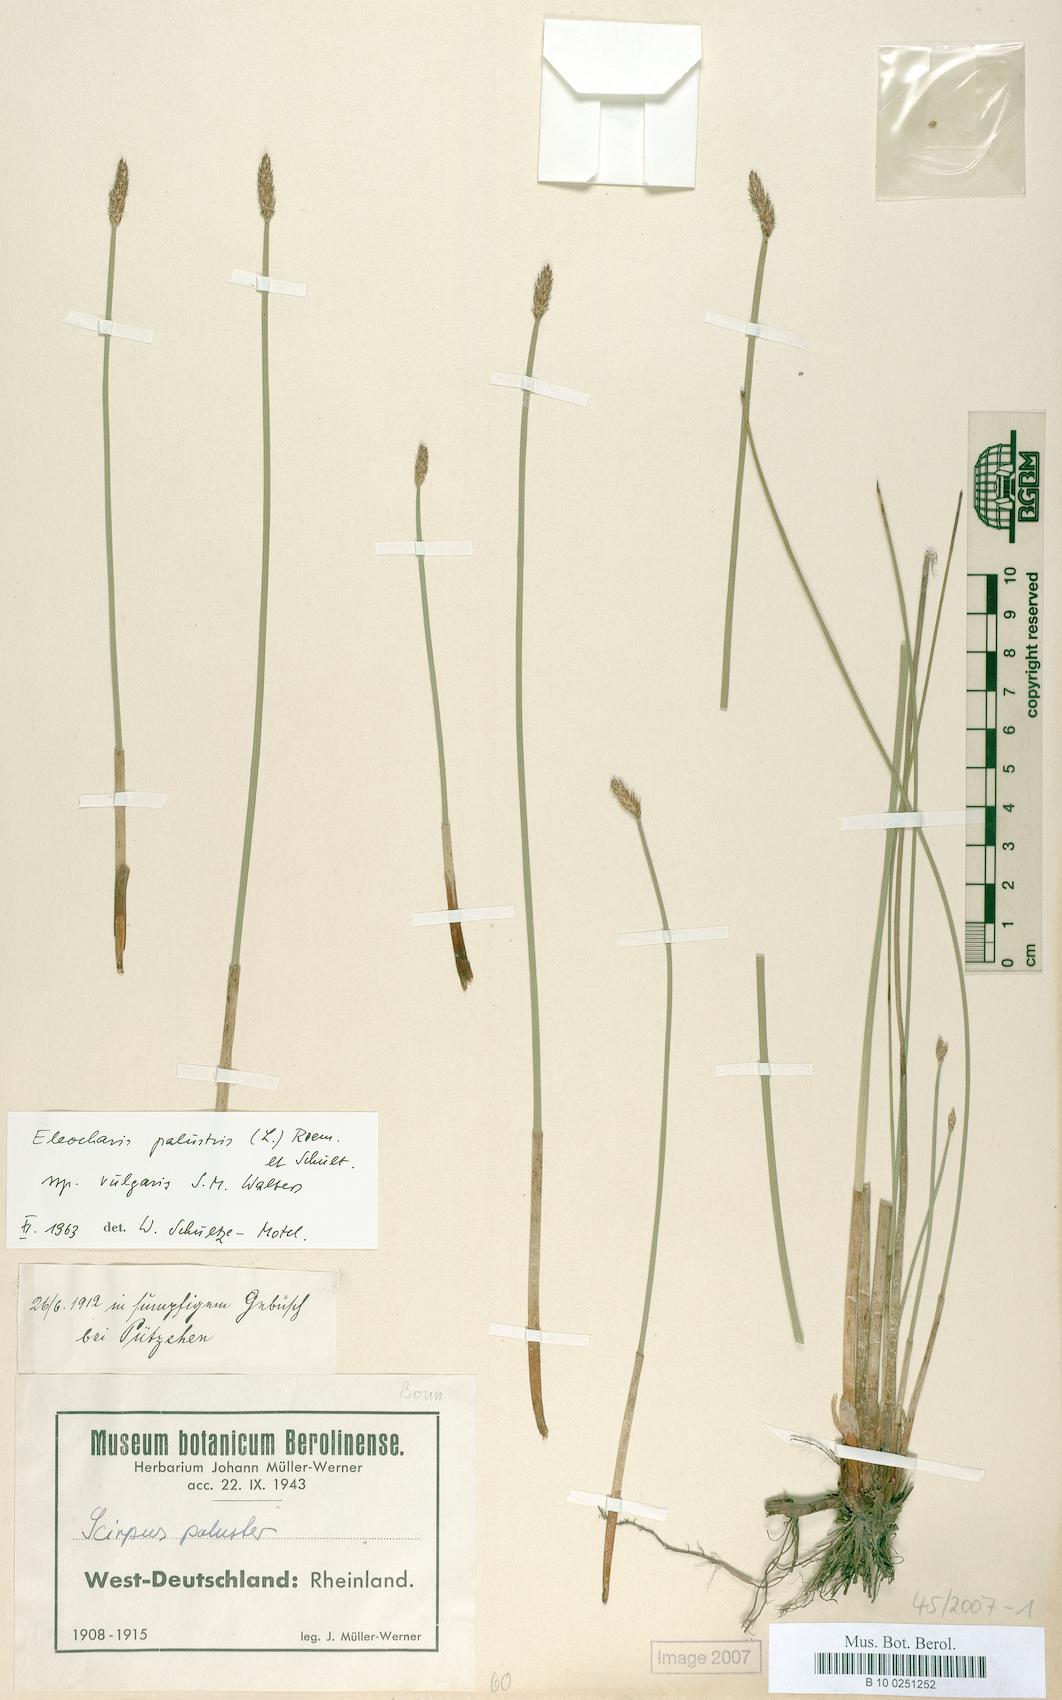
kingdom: Plantae
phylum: Tracheophyta
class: Liliopsida
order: Poales
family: Cyperaceae
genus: Eleocharis
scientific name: Eleocharis palustris
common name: Common spike-rush
